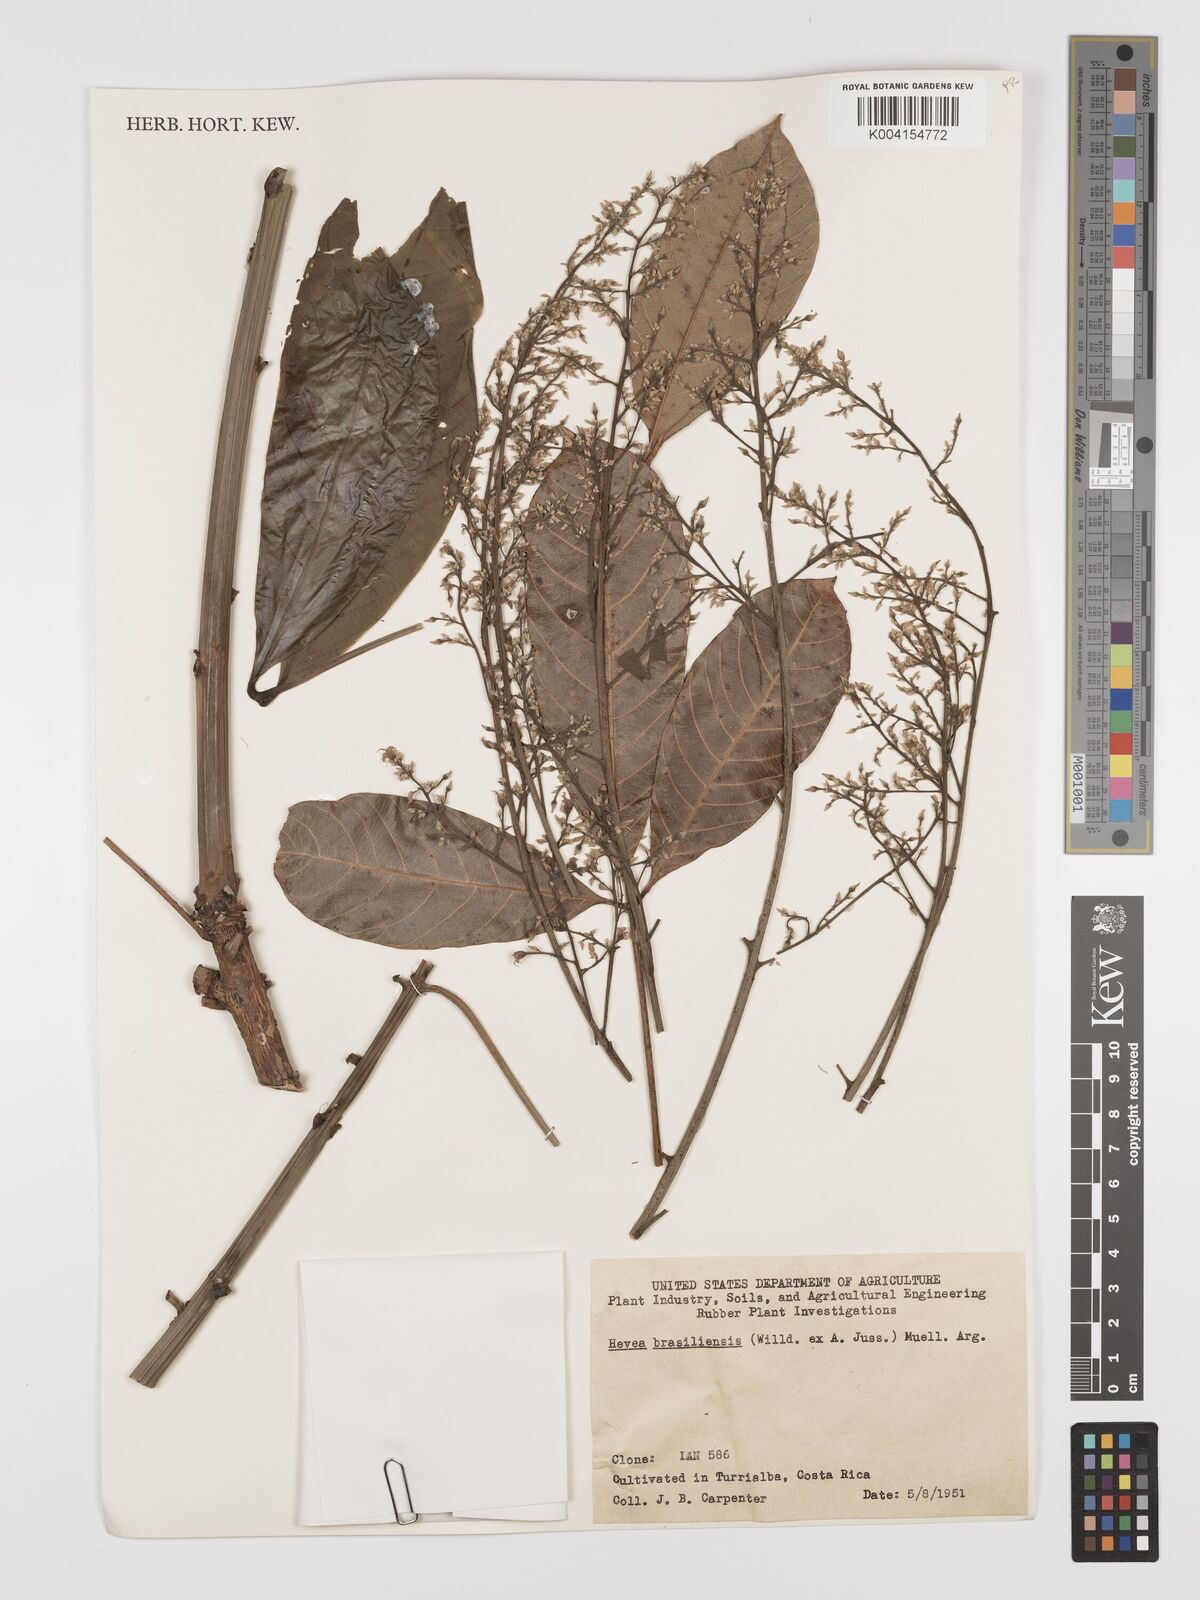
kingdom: Plantae
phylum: Tracheophyta
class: Magnoliopsida
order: Malpighiales
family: Euphorbiaceae
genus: Hevea
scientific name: Hevea brasiliensis
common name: Natural rubber
